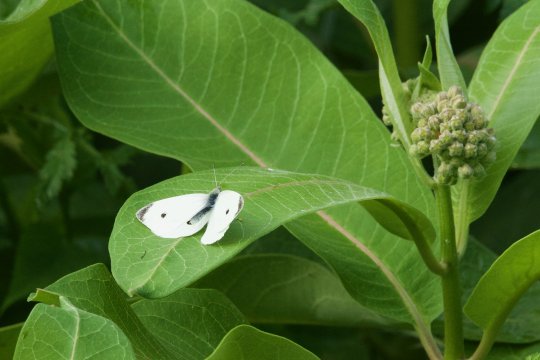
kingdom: Animalia
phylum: Arthropoda
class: Insecta
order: Lepidoptera
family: Pieridae
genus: Pieris
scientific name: Pieris rapae
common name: Cabbage White
